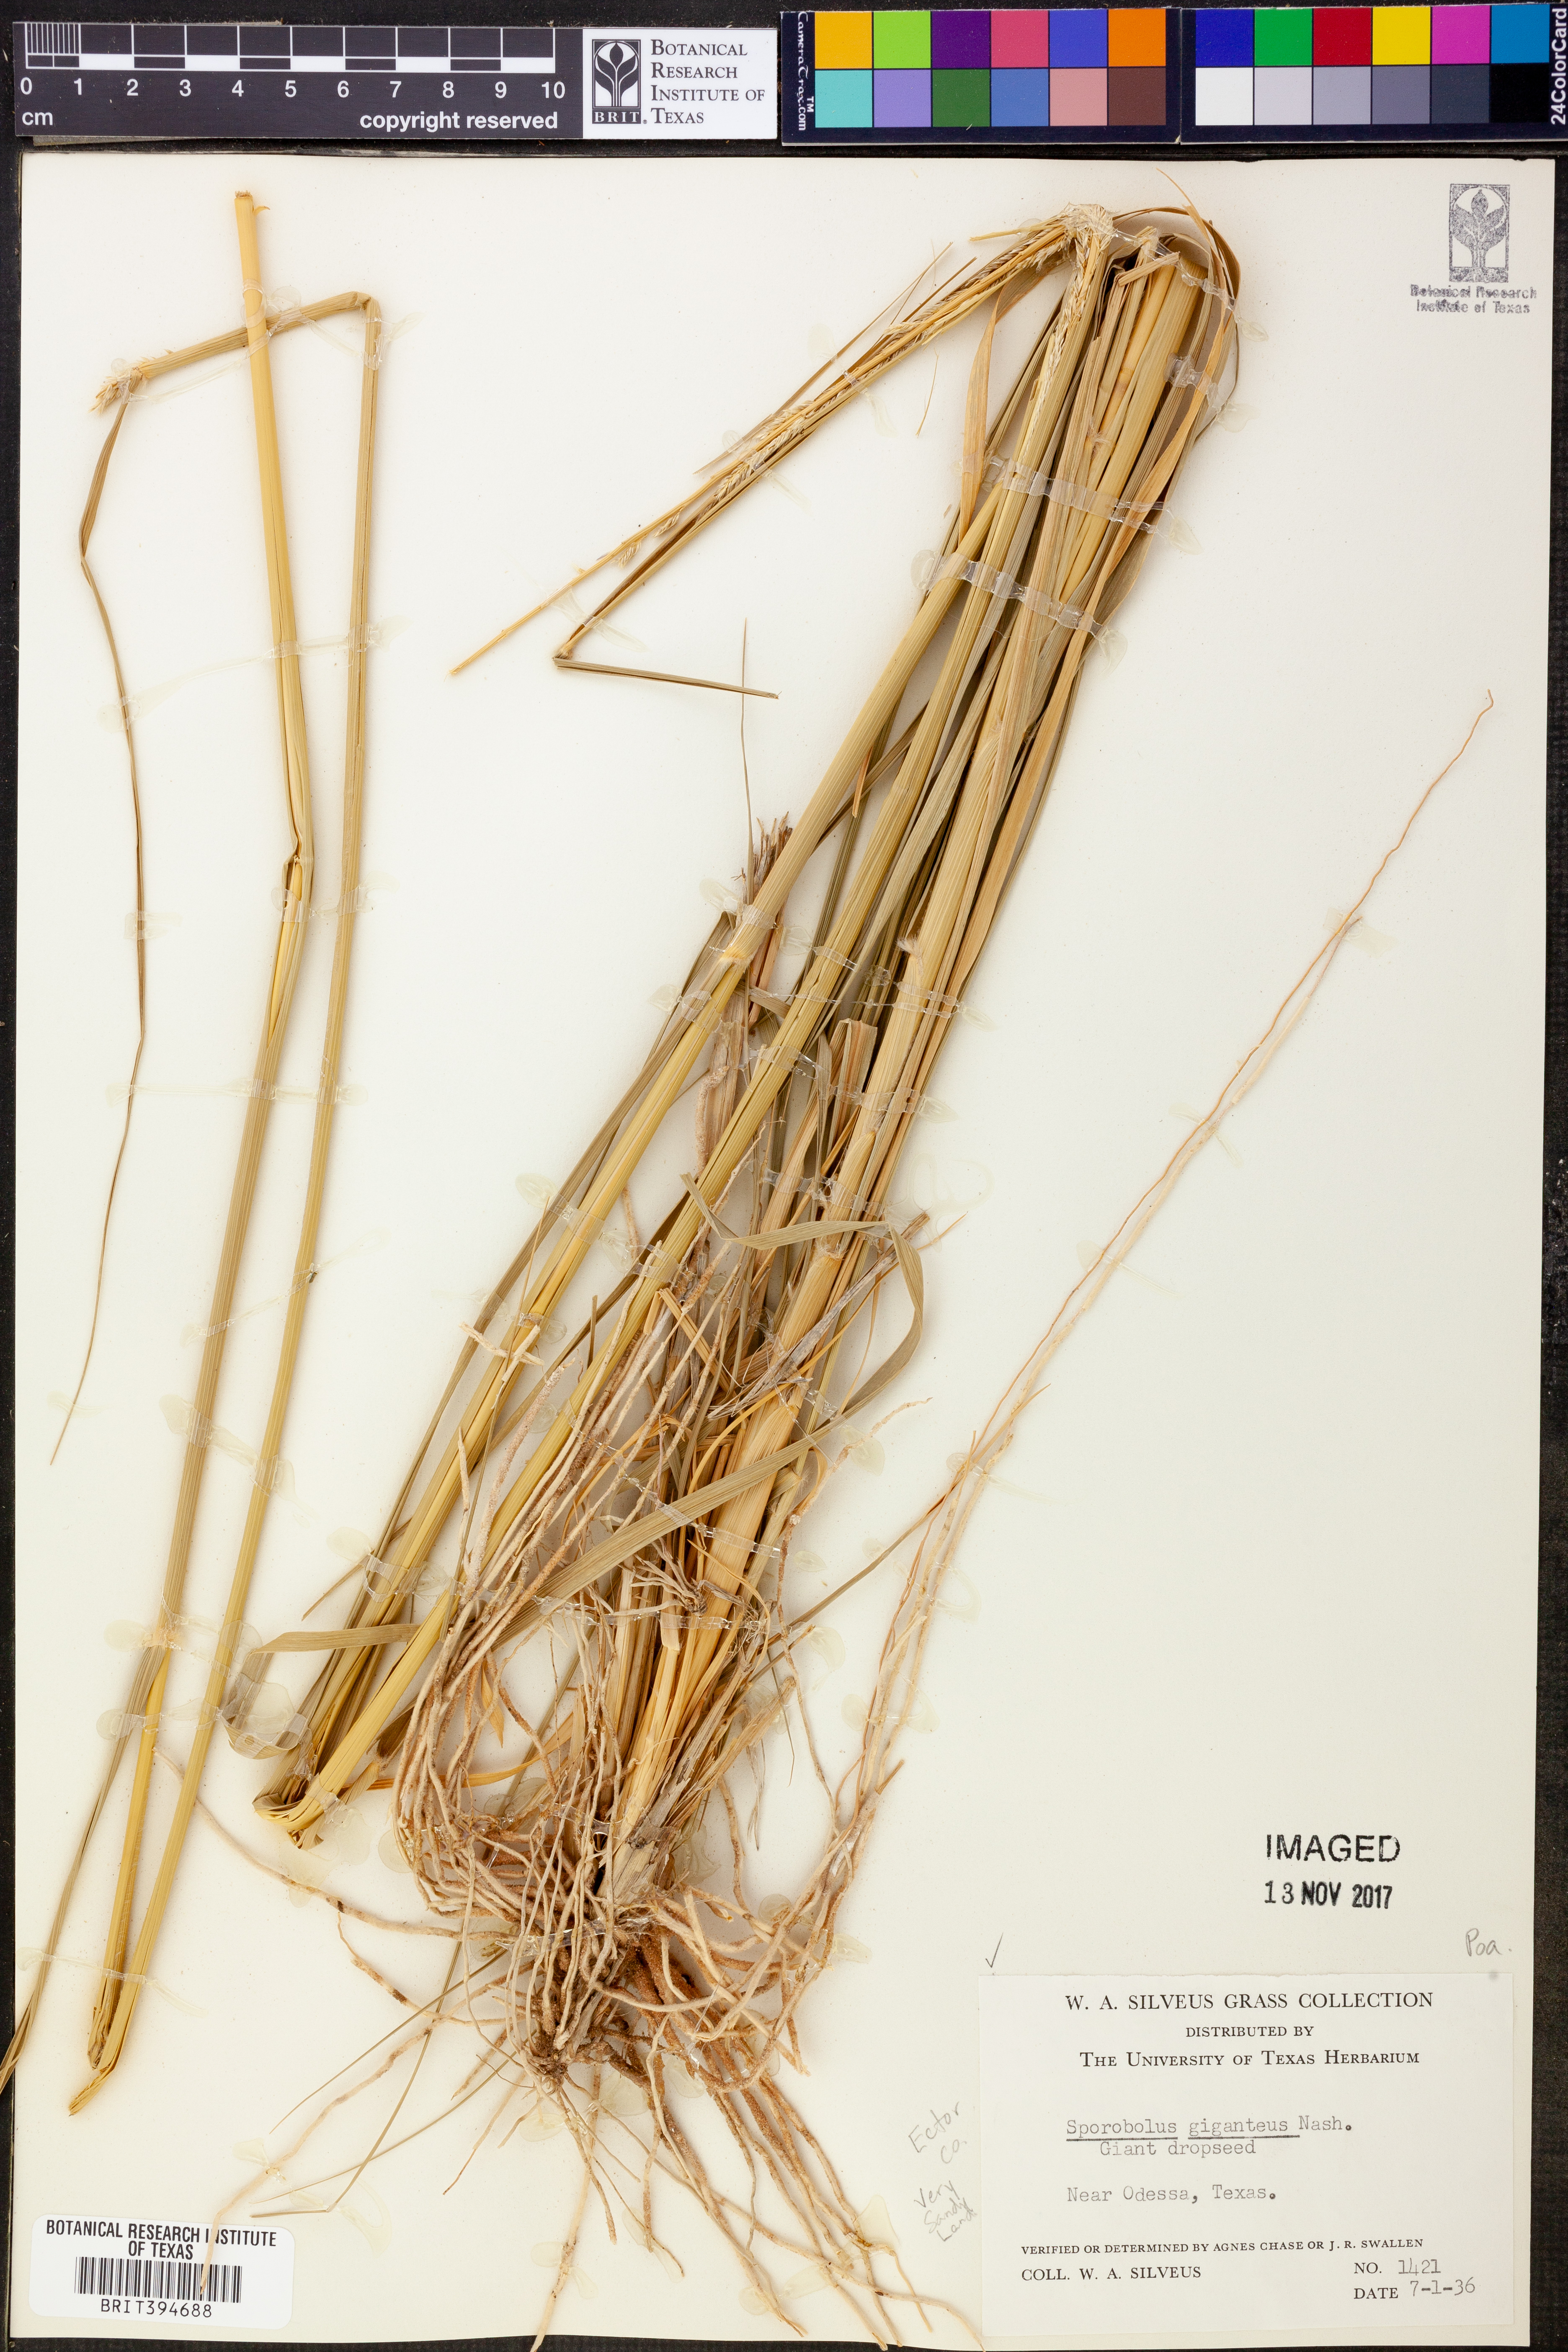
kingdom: Plantae
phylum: Tracheophyta
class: Liliopsida
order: Poales
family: Poaceae
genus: Sporobolus
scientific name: Sporobolus giganteus
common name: Giant dropseed
